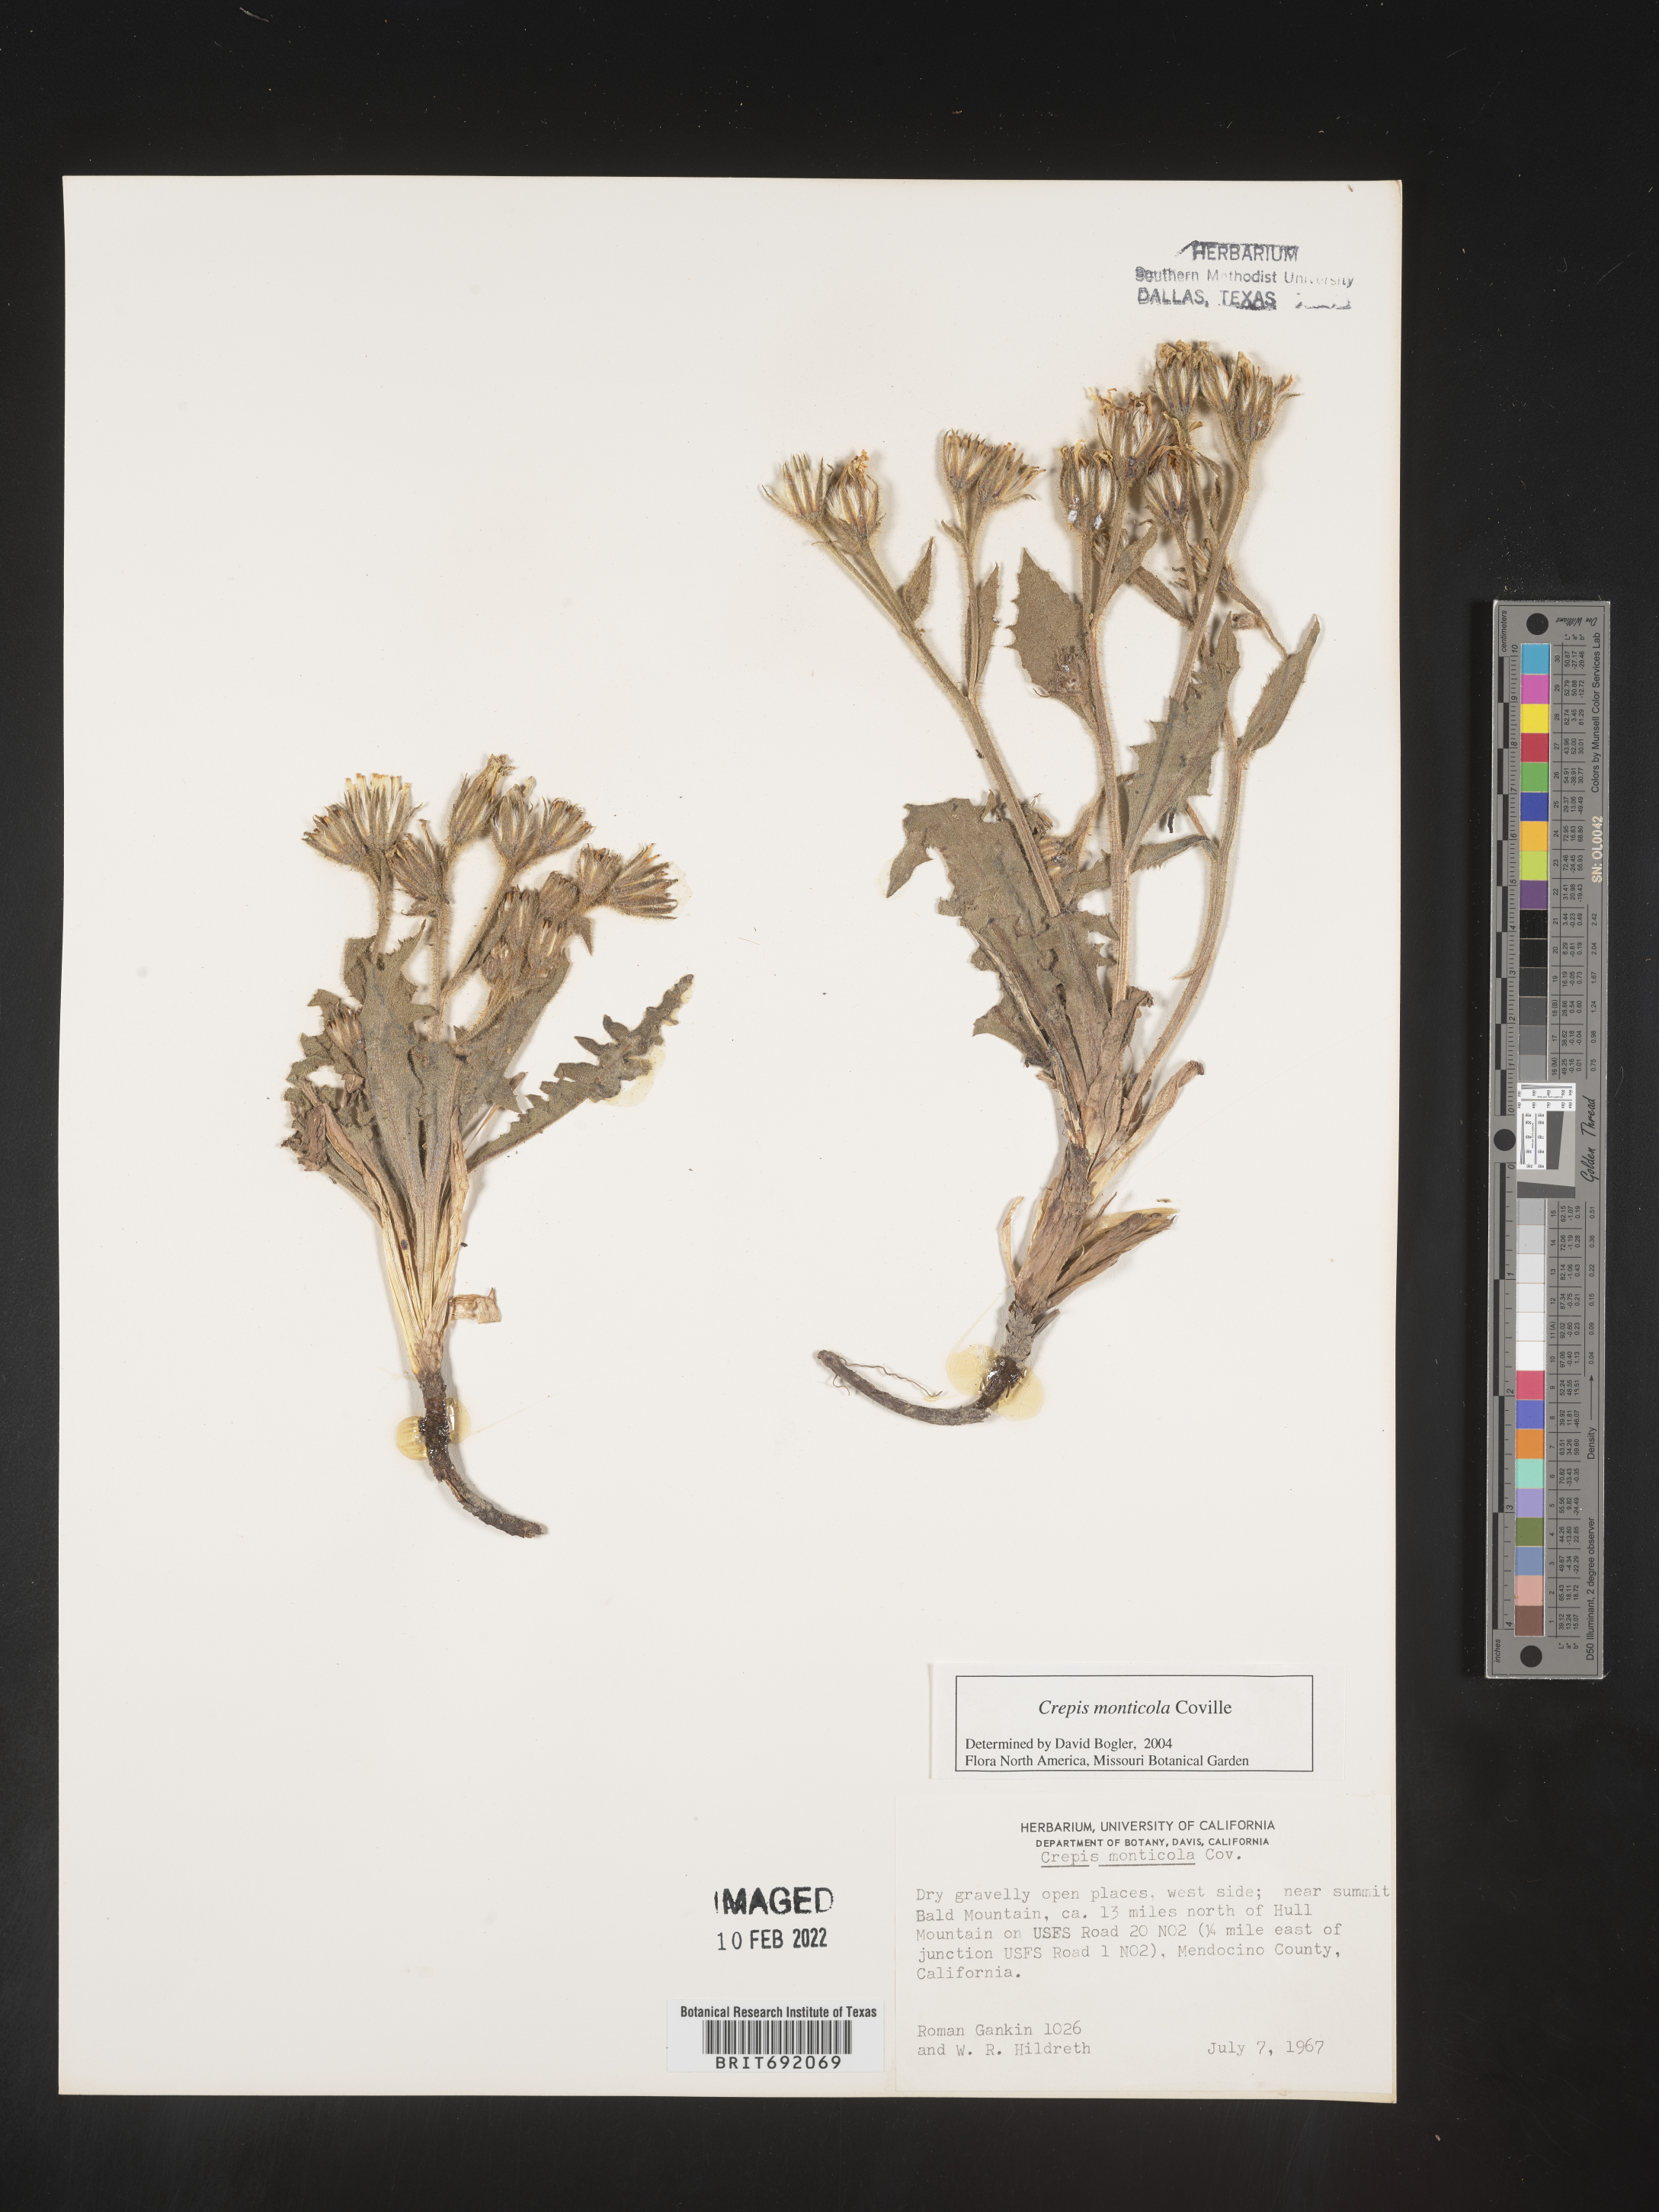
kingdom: Plantae
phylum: Tracheophyta
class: Magnoliopsida
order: Asterales
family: Asteraceae
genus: Crepis
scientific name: Crepis
